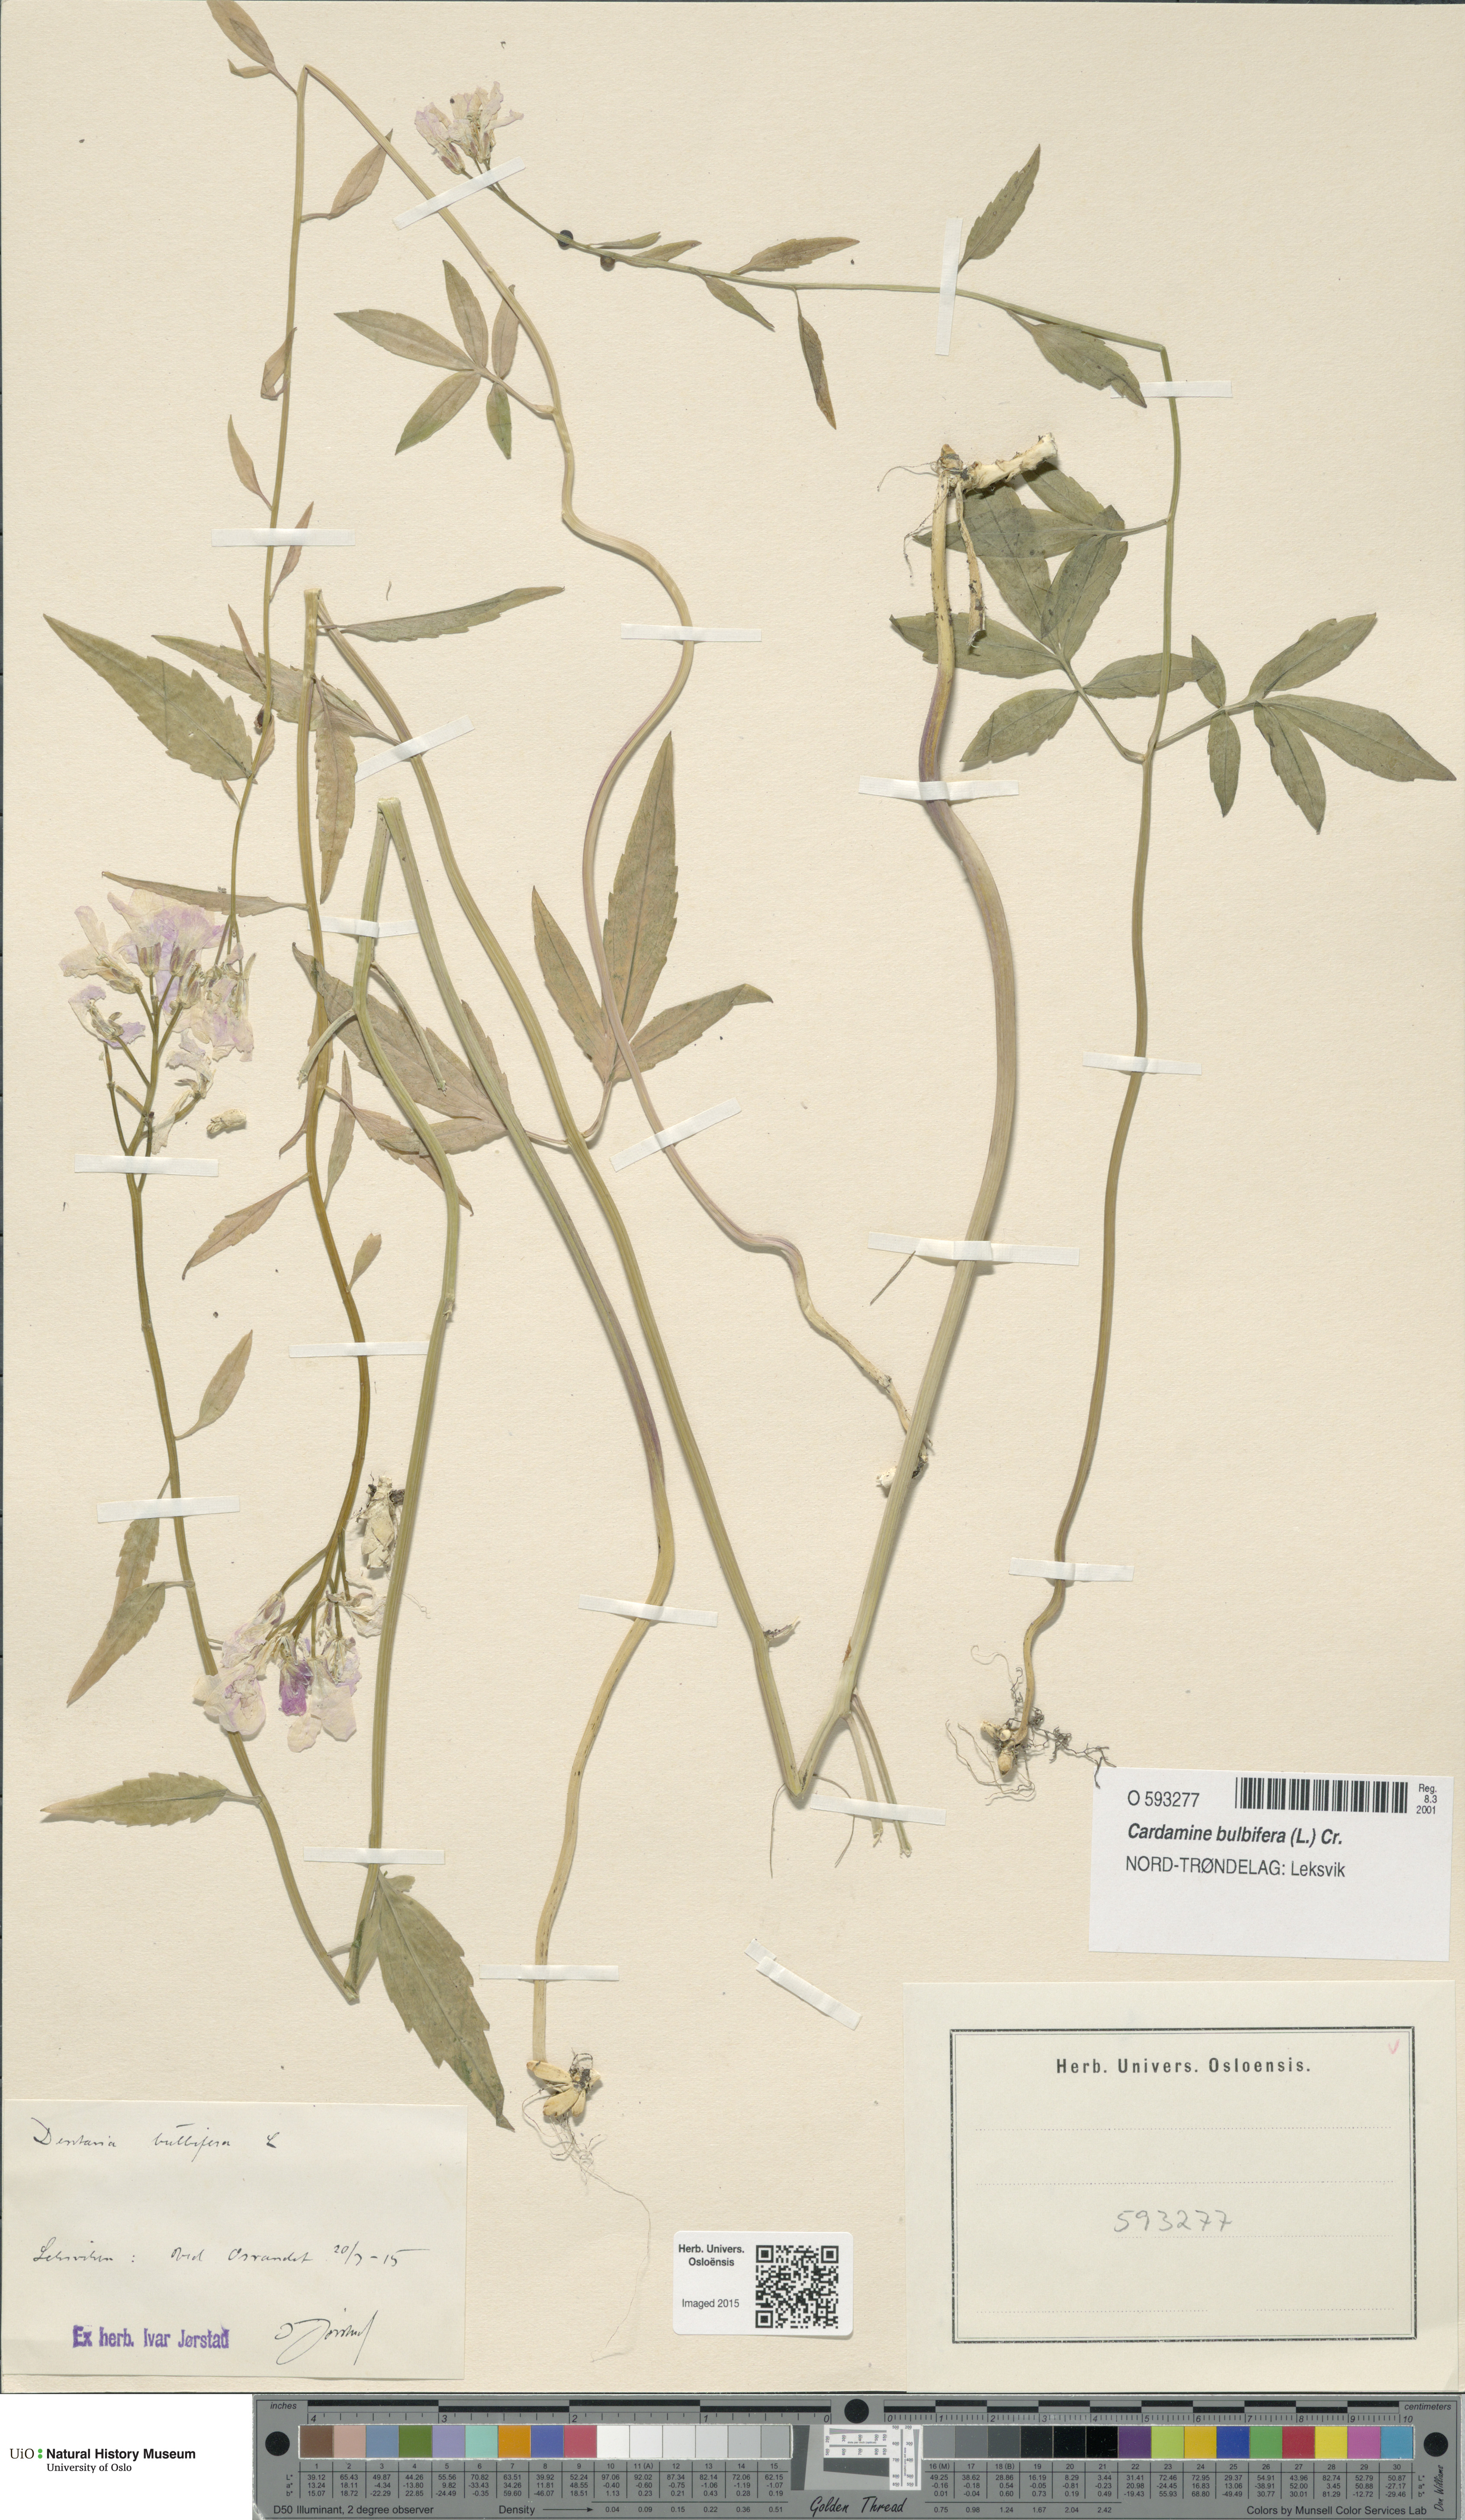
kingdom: Plantae
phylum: Tracheophyta
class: Magnoliopsida
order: Brassicales
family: Brassicaceae
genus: Cardamine
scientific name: Cardamine bulbifera
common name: Coralroot bittercress
